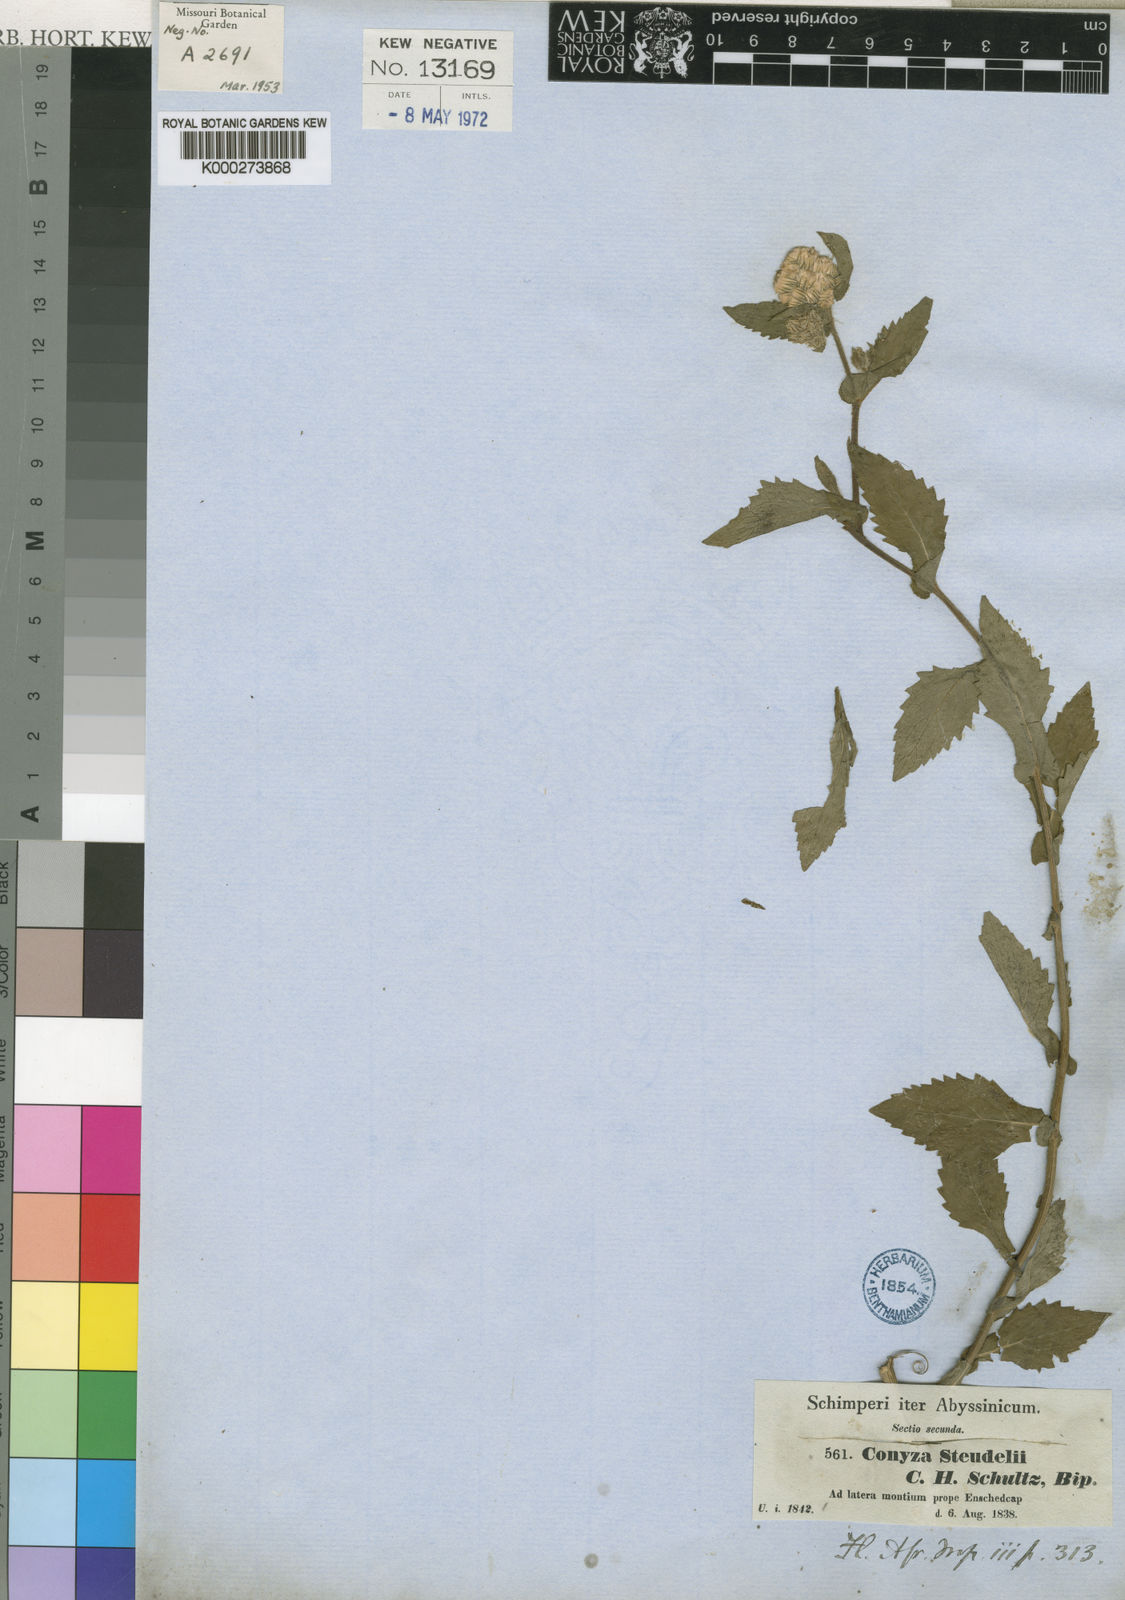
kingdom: Plantae
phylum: Tracheophyta
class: Magnoliopsida
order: Asterales
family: Asteraceae
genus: Conyza
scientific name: Conyza steudelii
